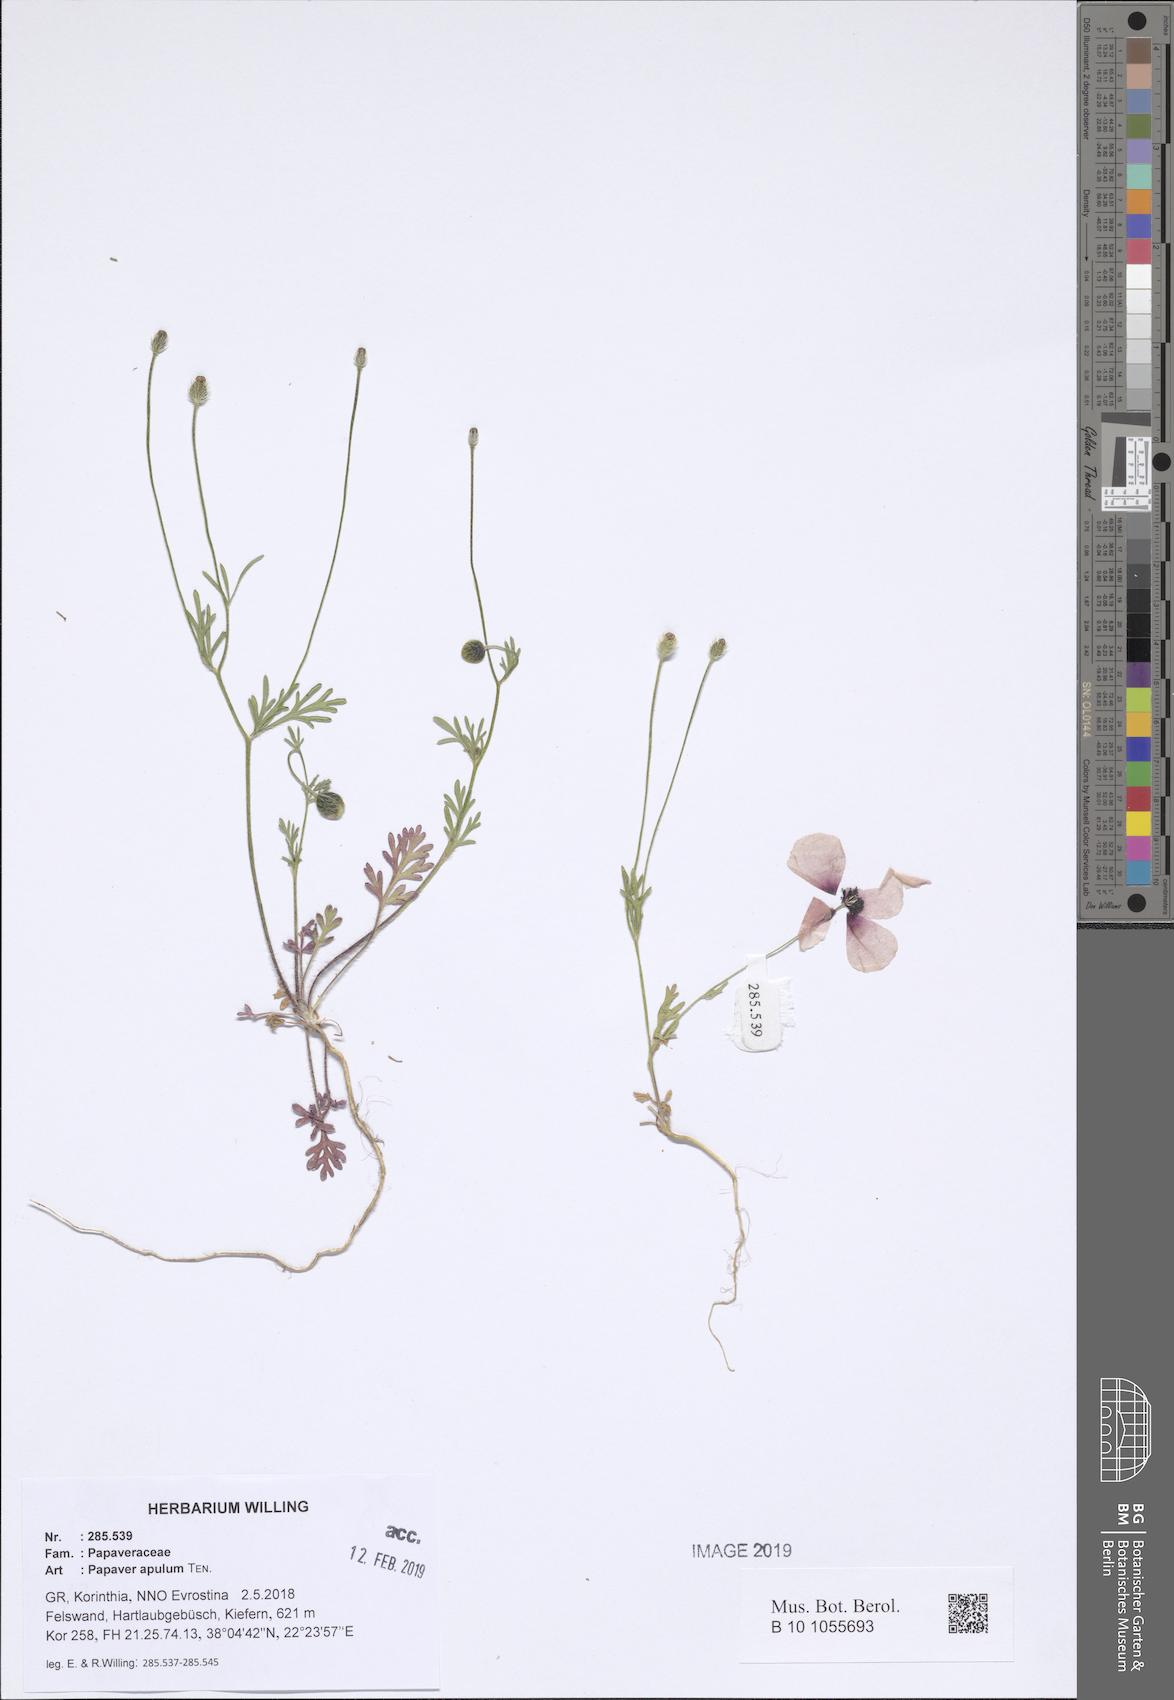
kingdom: Plantae
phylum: Tracheophyta
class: Magnoliopsida
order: Ranunculales
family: Papaveraceae
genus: Roemeria
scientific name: Roemeria apula
